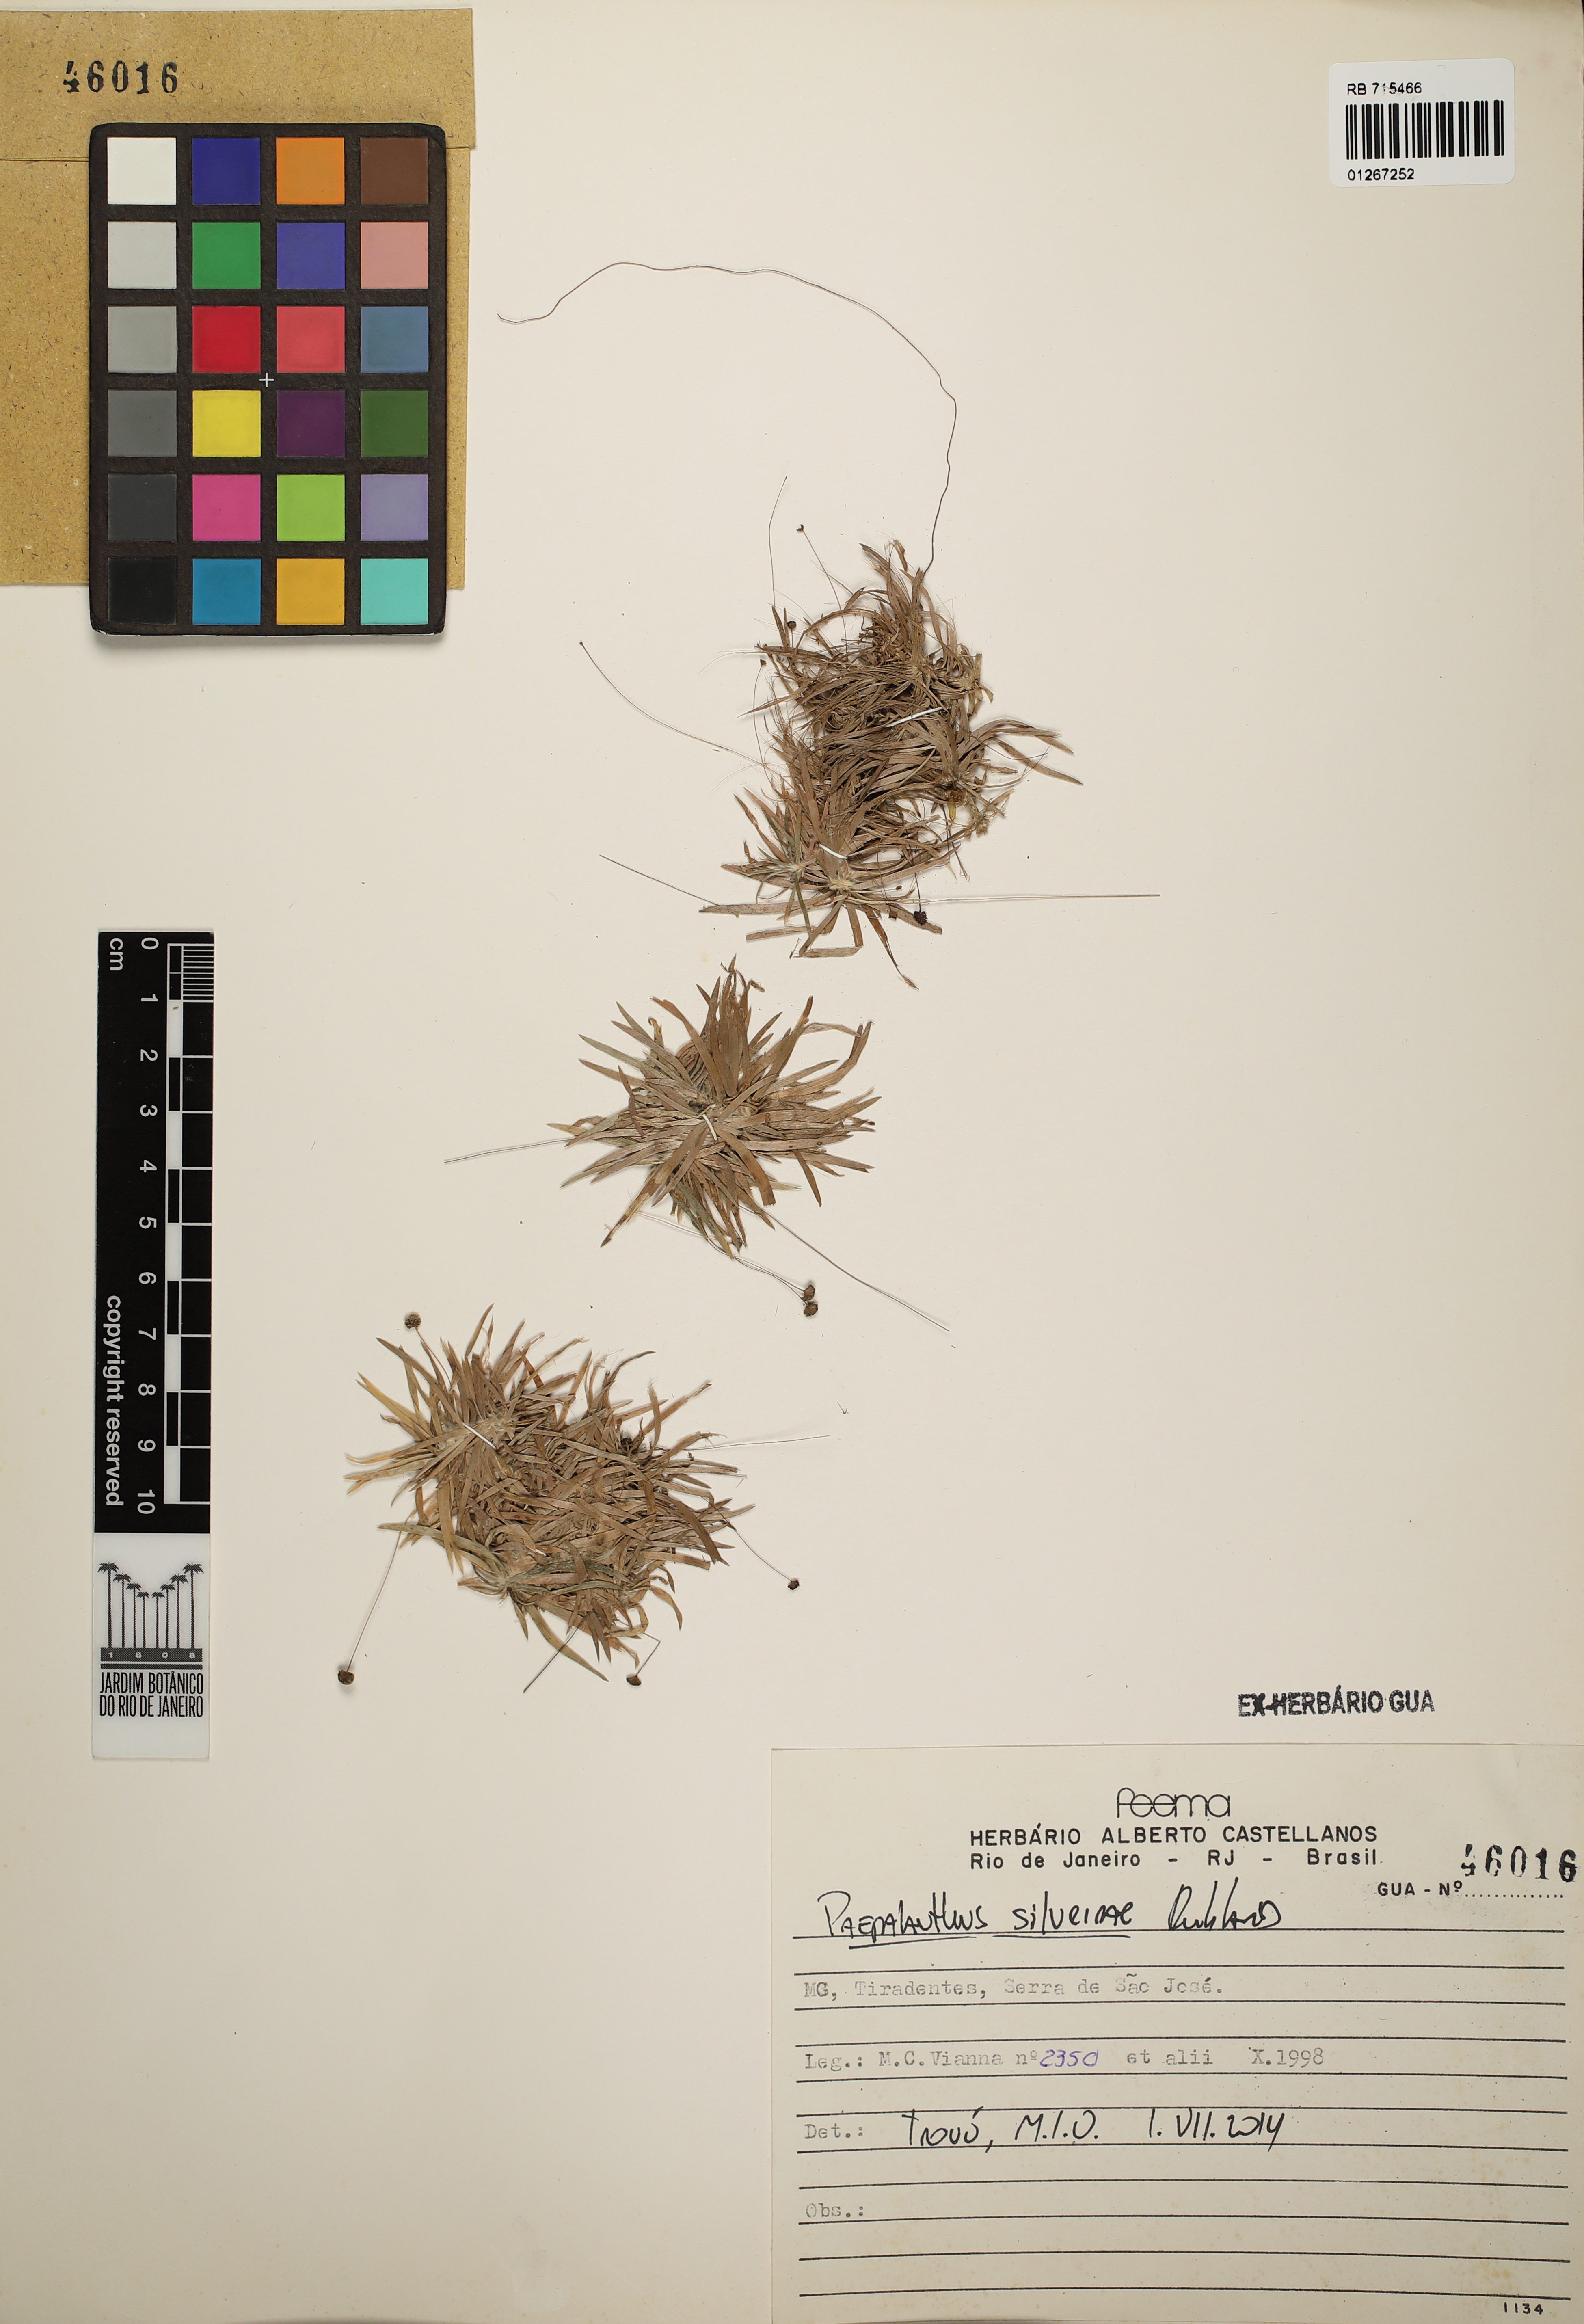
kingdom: Plantae
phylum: Tracheophyta
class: Liliopsida
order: Poales
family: Eriocaulaceae
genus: Paepalanthus
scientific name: Paepalanthus silveirae
